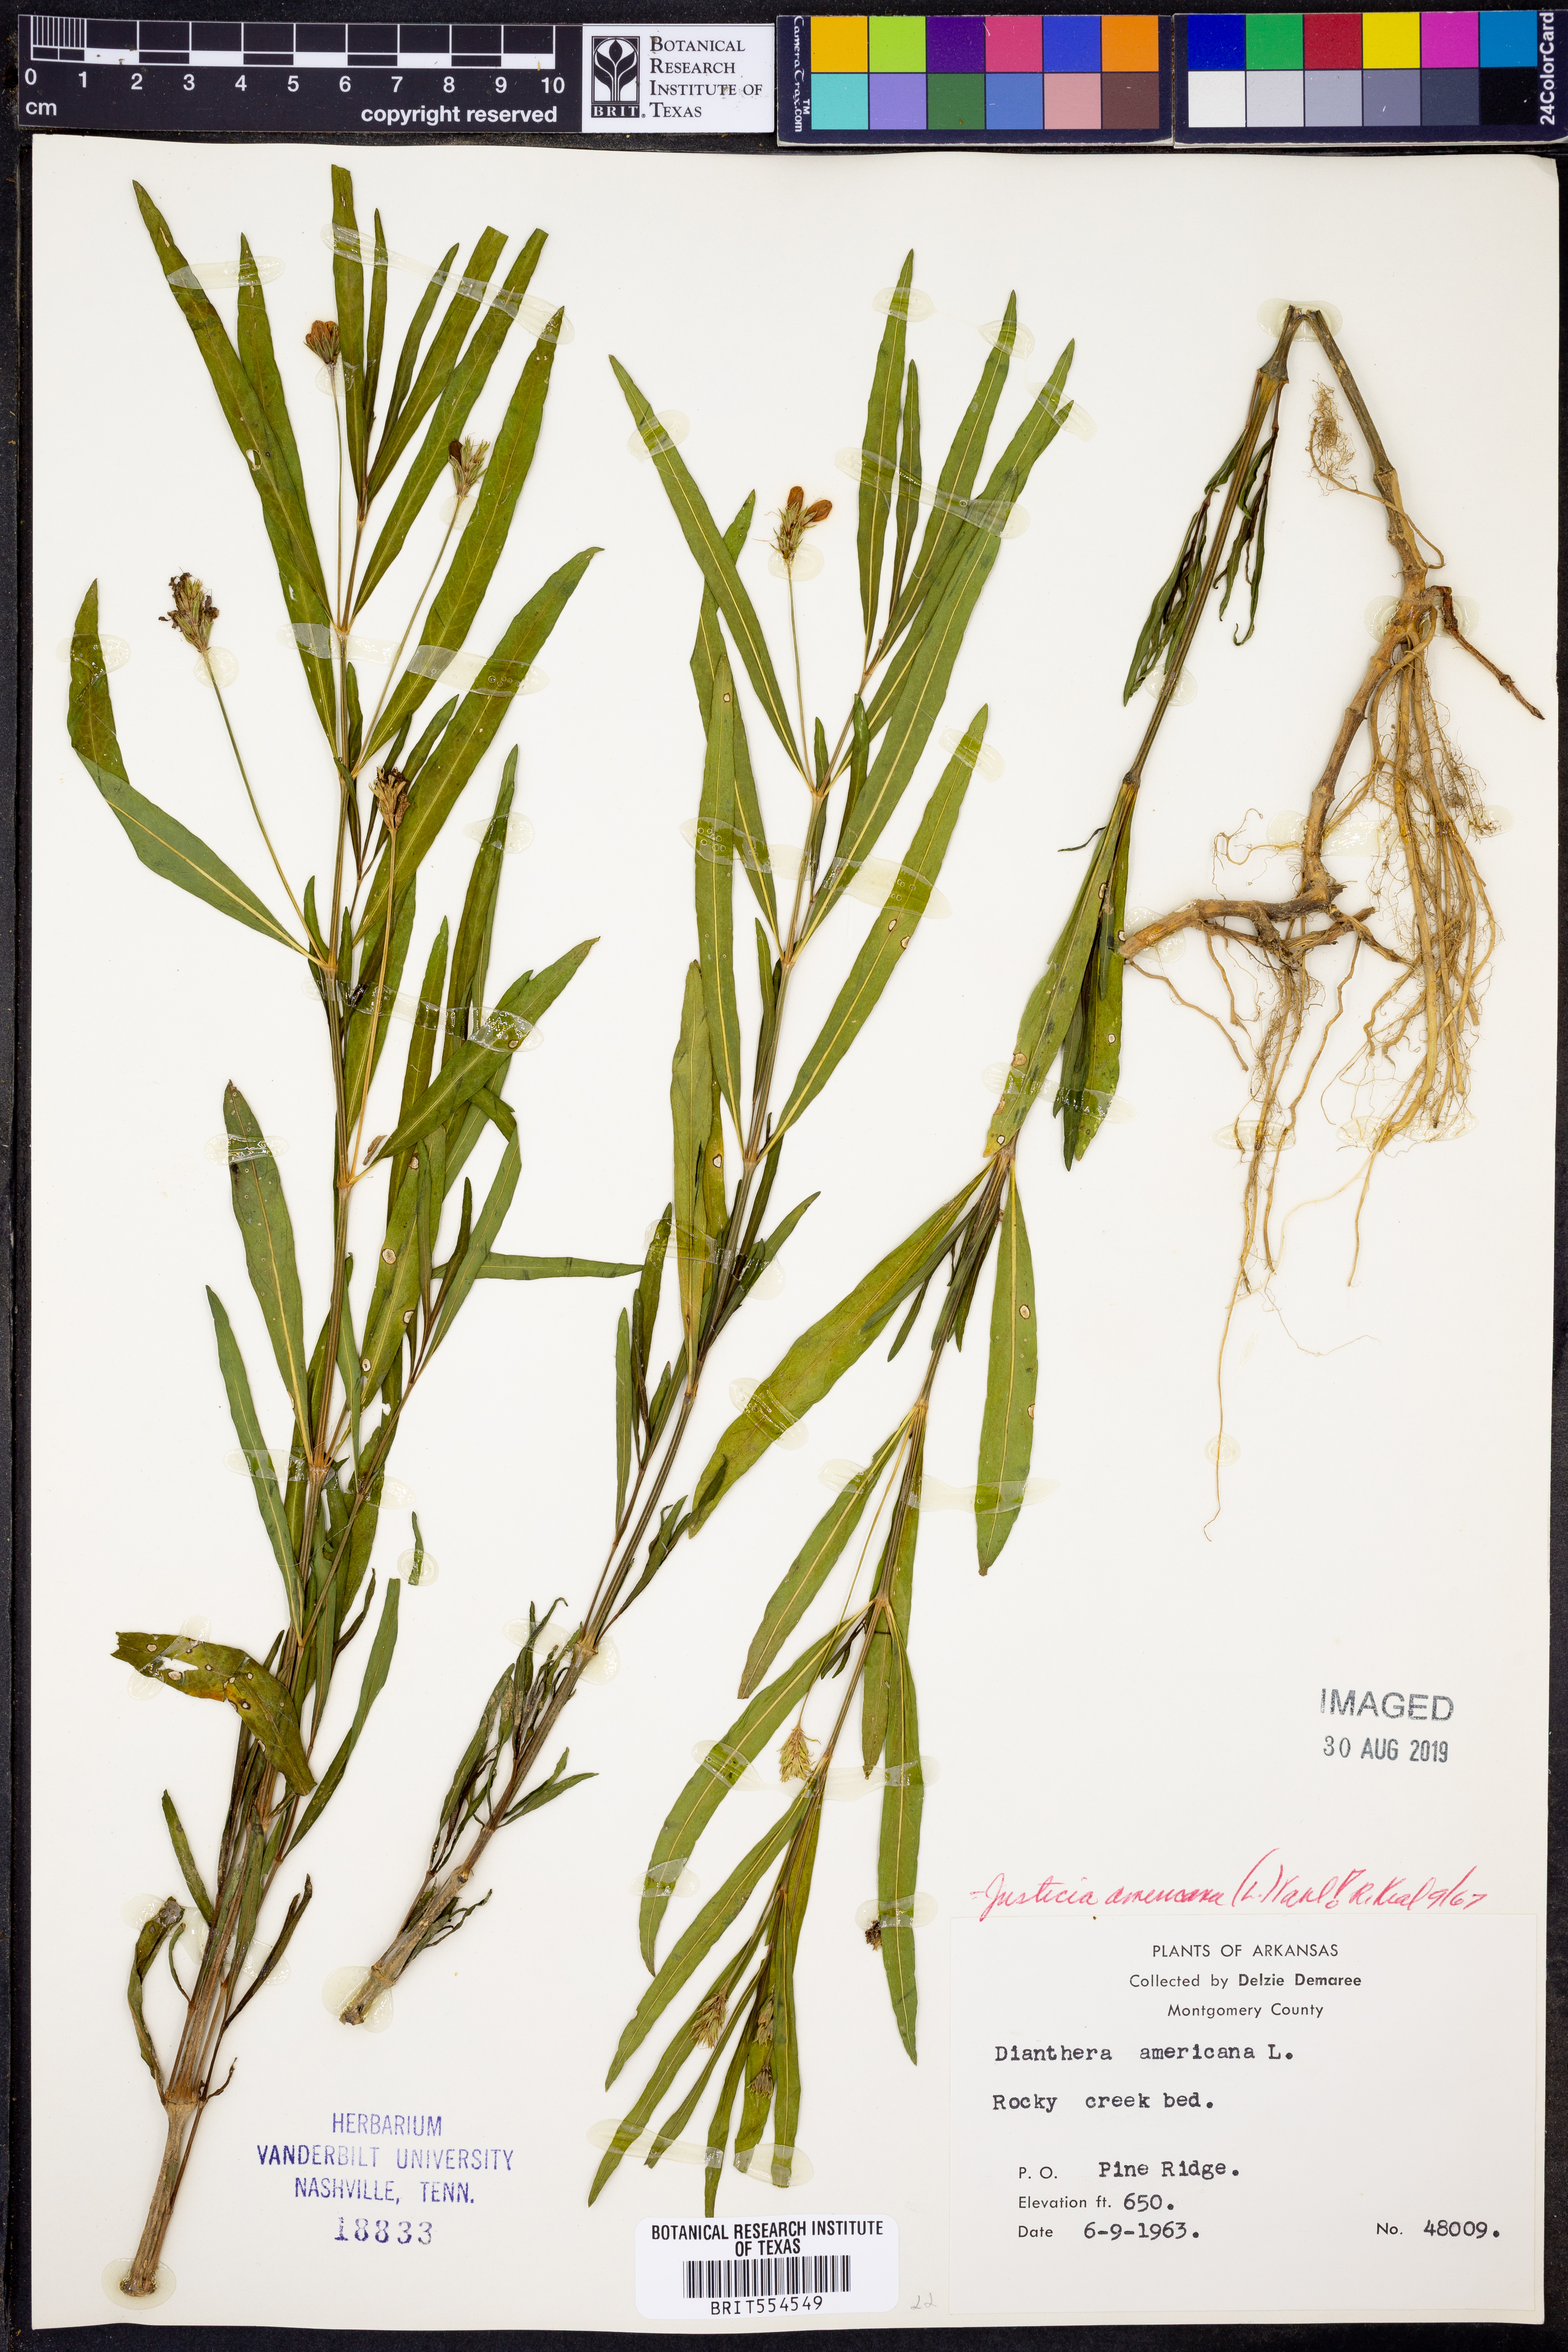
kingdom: Plantae
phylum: Tracheophyta
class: Magnoliopsida
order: Lamiales
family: Acanthaceae
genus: Dianthera
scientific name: Dianthera americana
